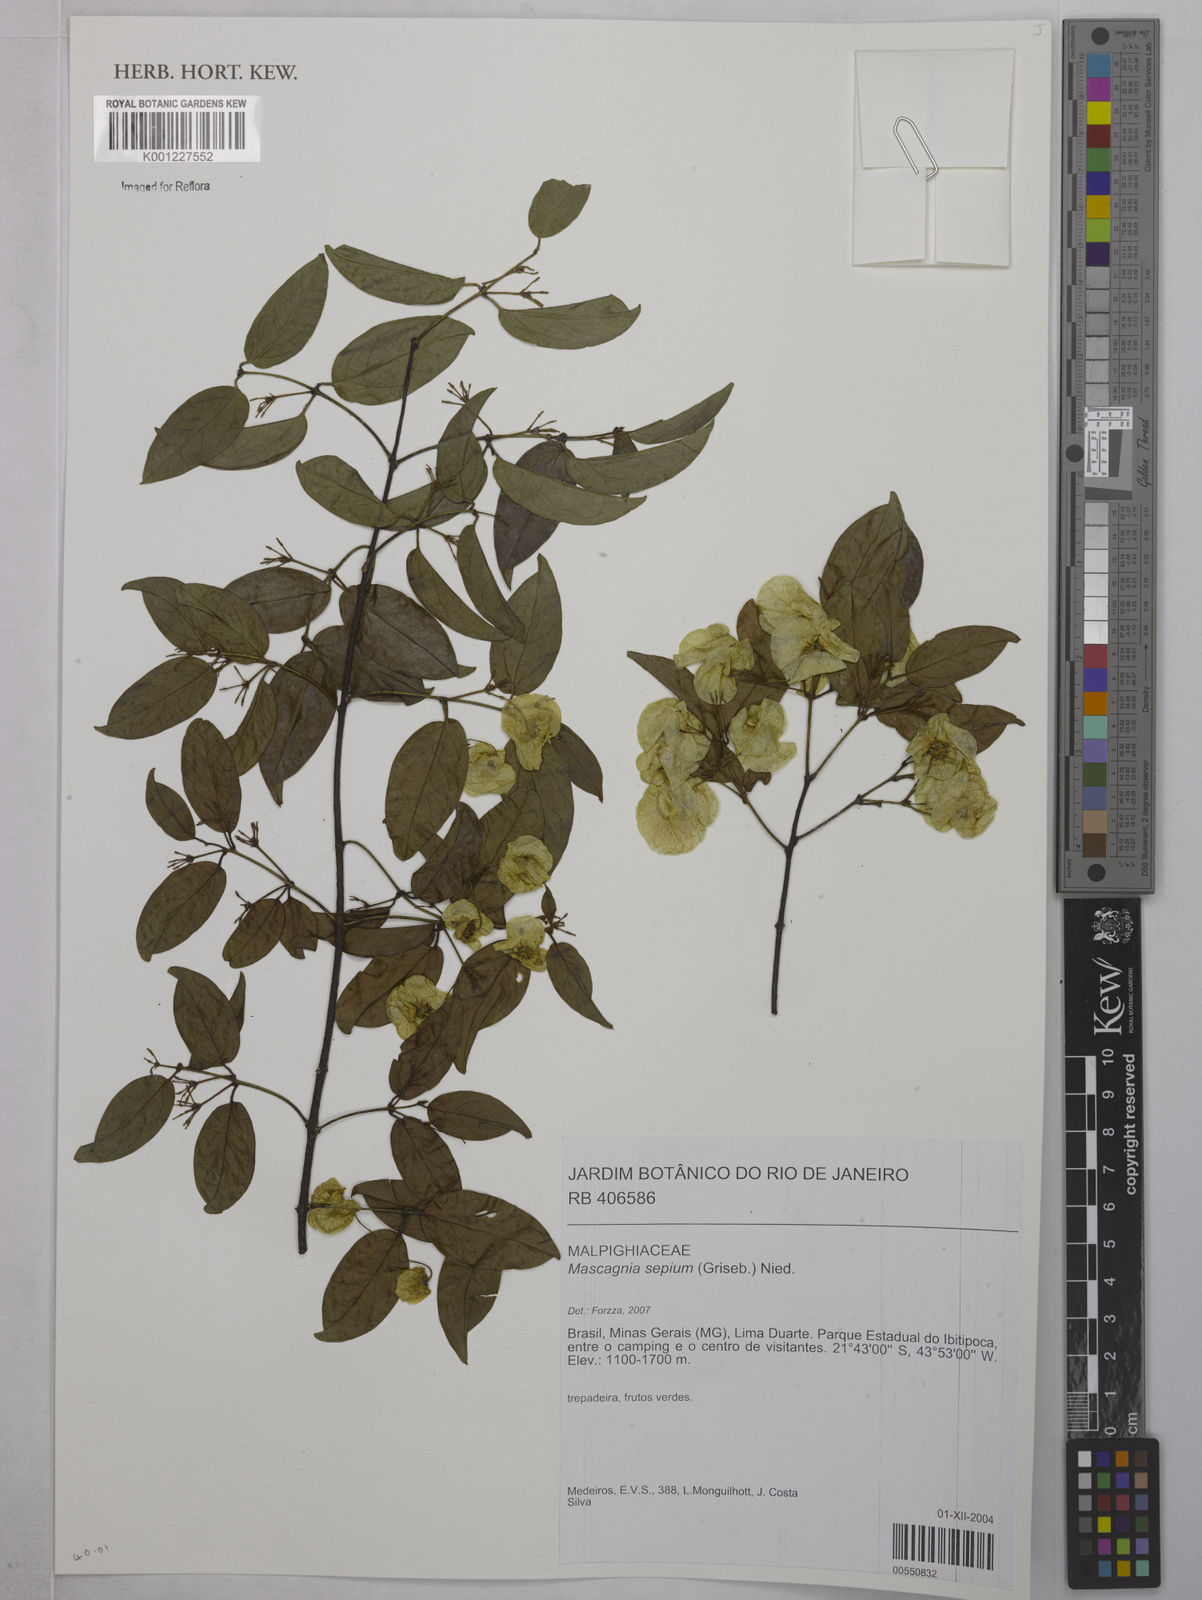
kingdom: Plantae
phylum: Tracheophyta
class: Magnoliopsida
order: Malpighiales
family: Malpighiaceae
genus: Mascagnia
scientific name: Mascagnia sepium
